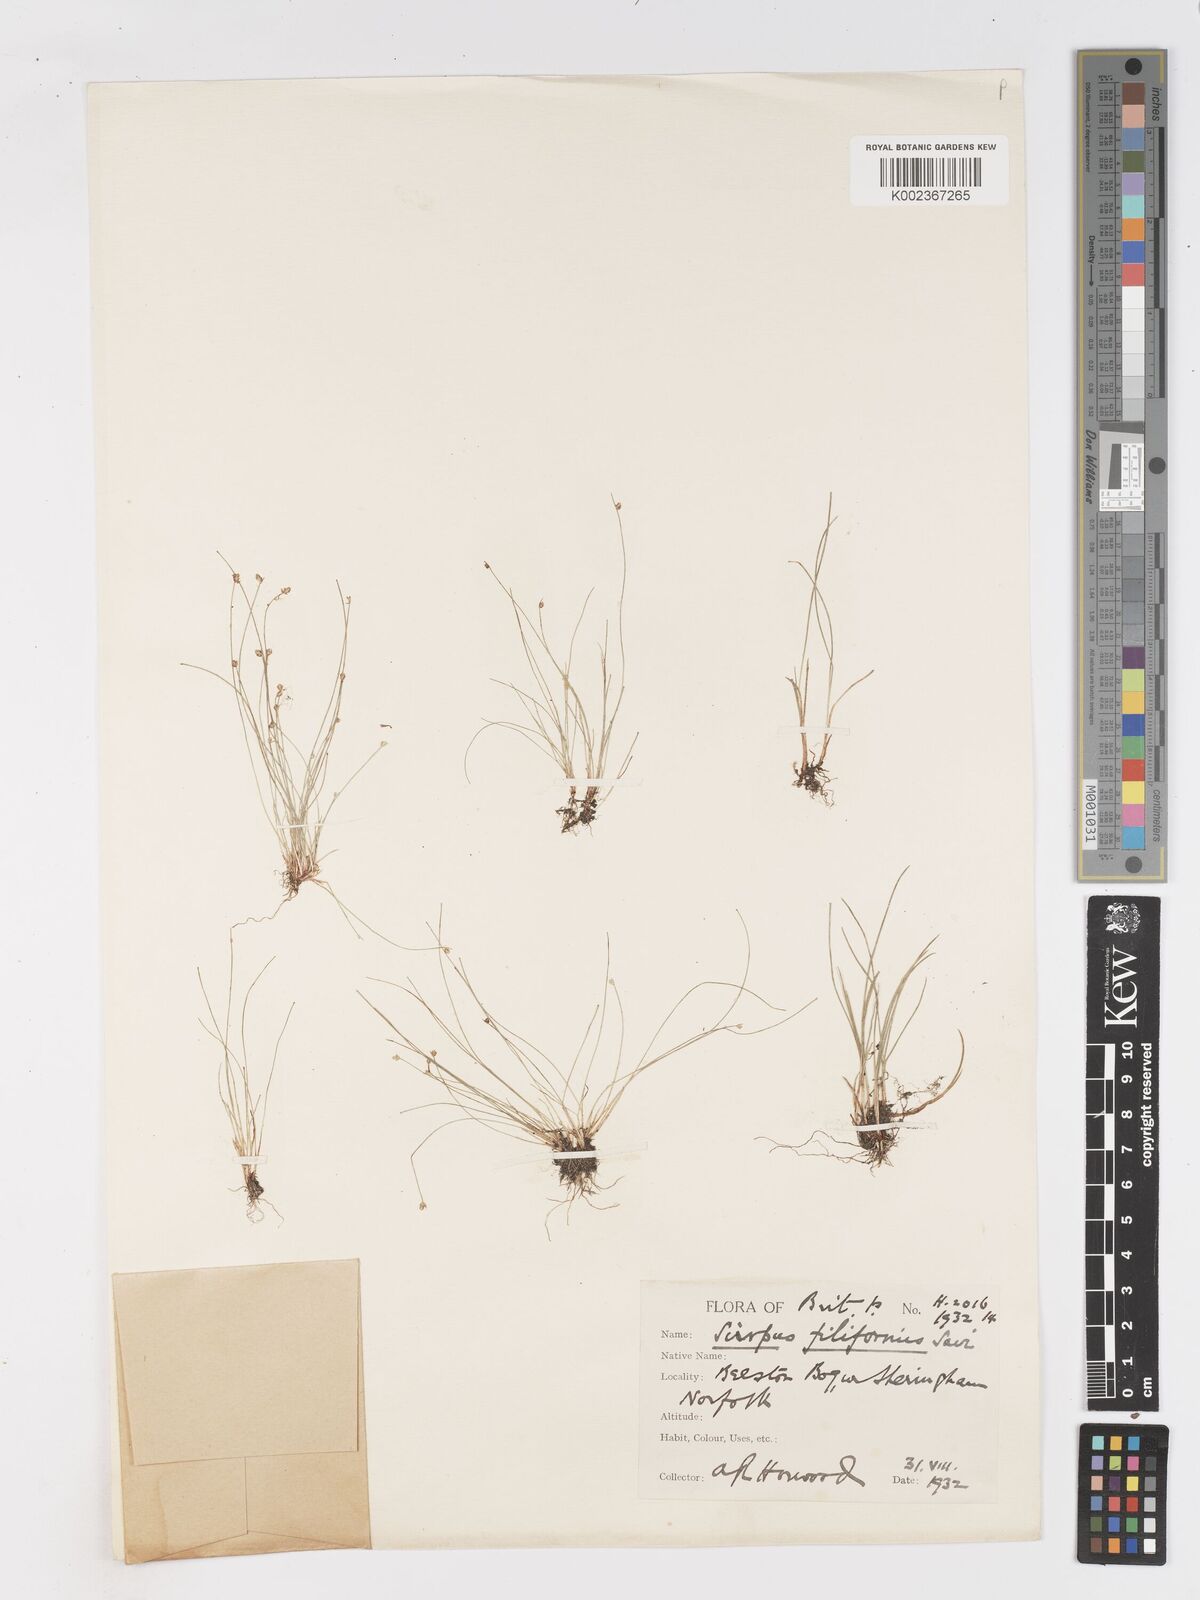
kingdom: Plantae
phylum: Tracheophyta
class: Liliopsida
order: Poales
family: Cyperaceae
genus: Isolepis
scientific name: Isolepis cernua
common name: Slender club-rush
